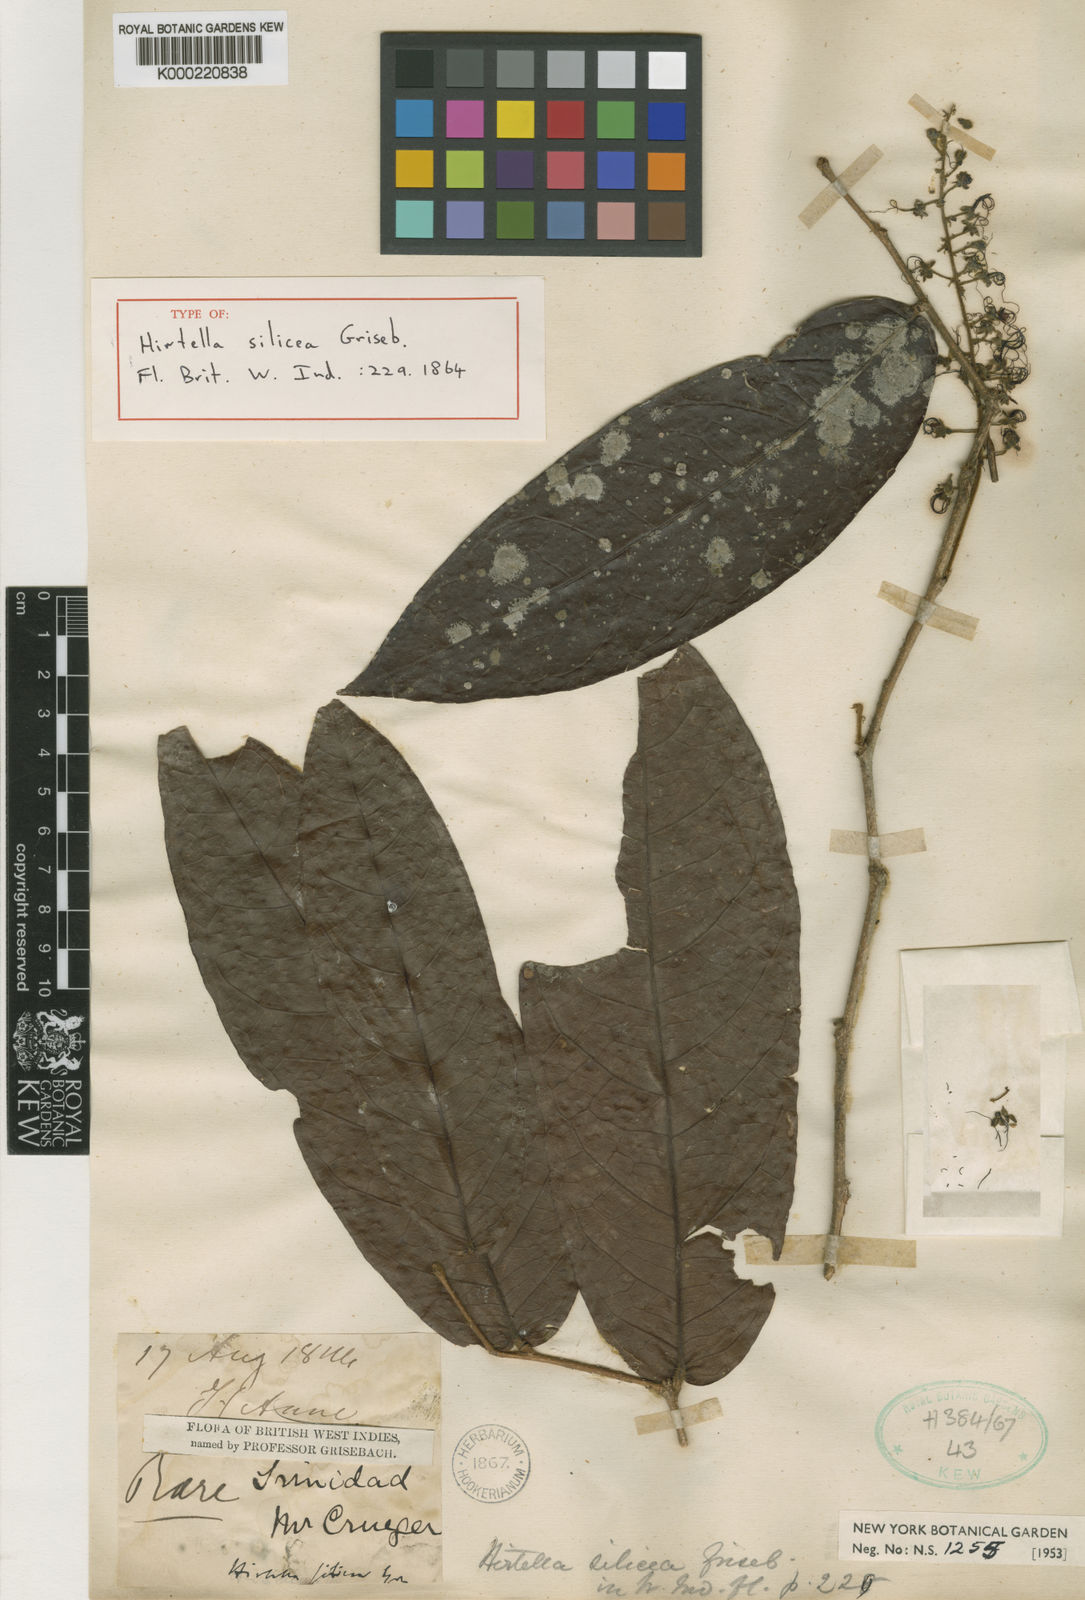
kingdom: Plantae
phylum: Tracheophyta
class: Magnoliopsida
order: Malpighiales
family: Chrysobalanaceae
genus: Hirtella
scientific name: Hirtella silicea
